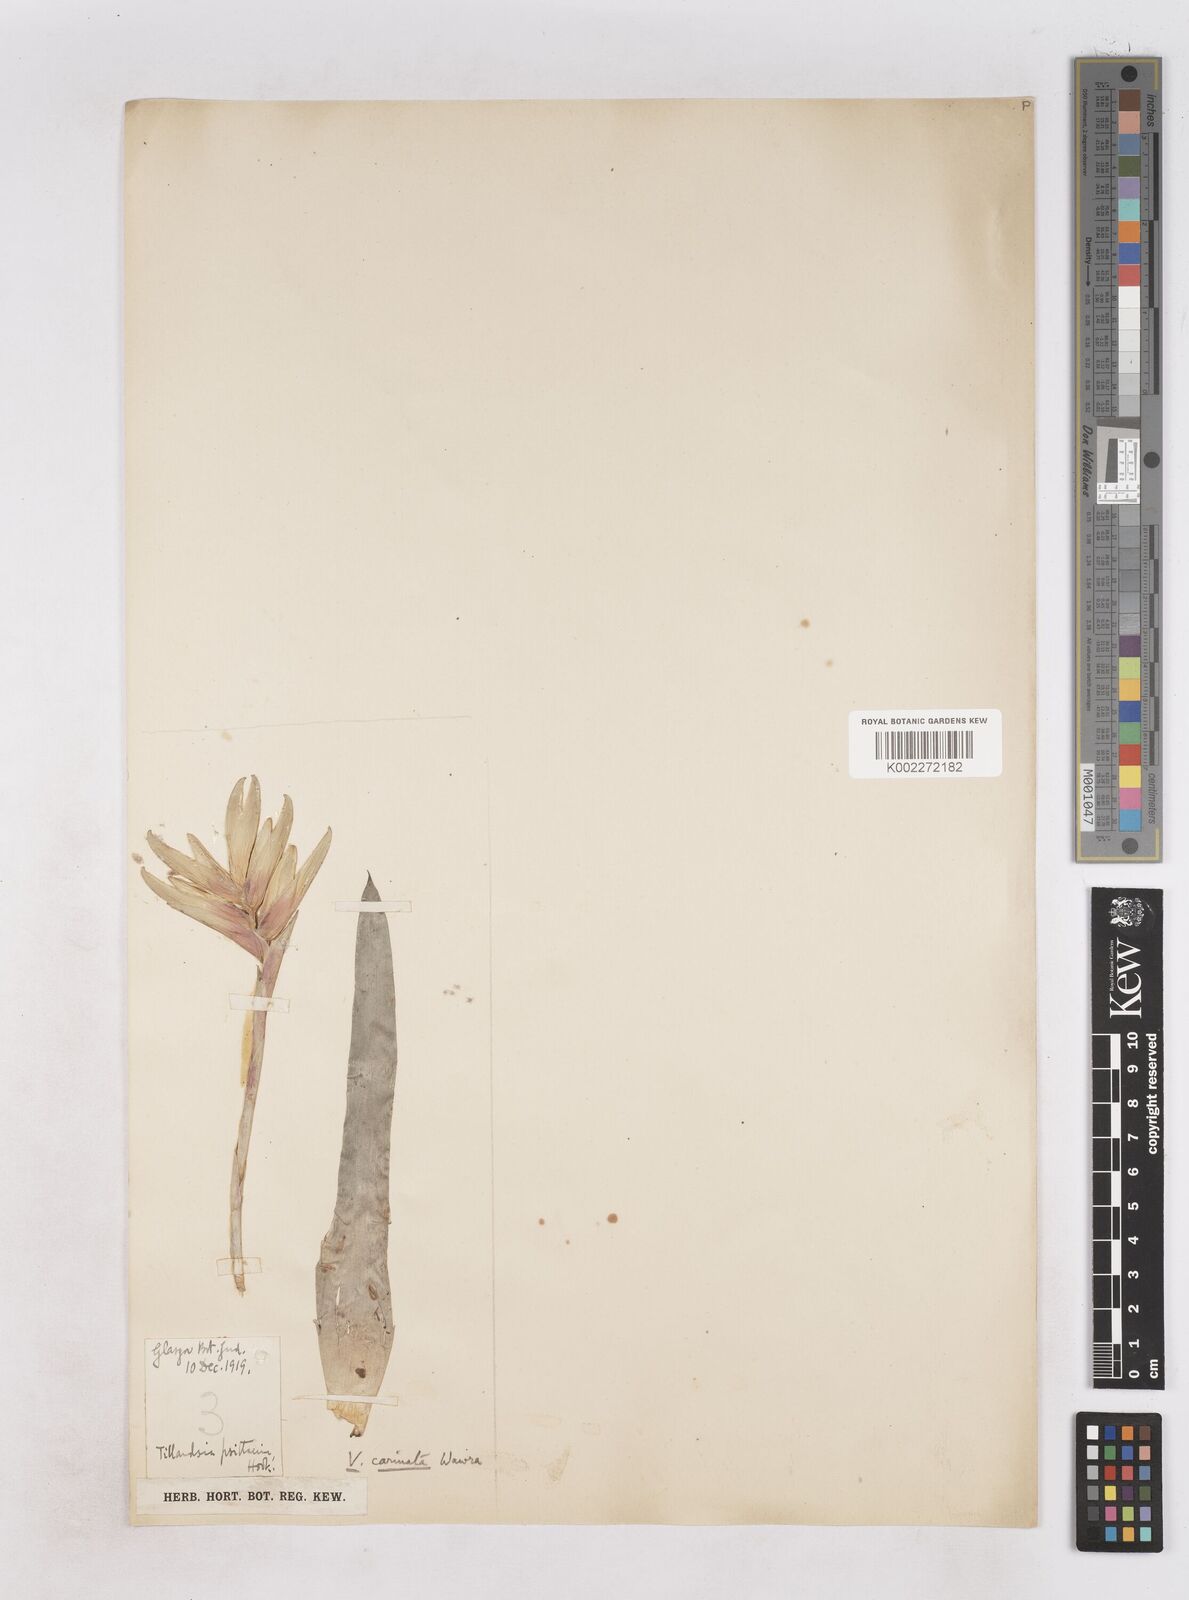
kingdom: Plantae
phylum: Tracheophyta
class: Liliopsida
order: Poales
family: Bromeliaceae
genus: Vriesea
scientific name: Vriesea carinata
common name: Lobster-claws
